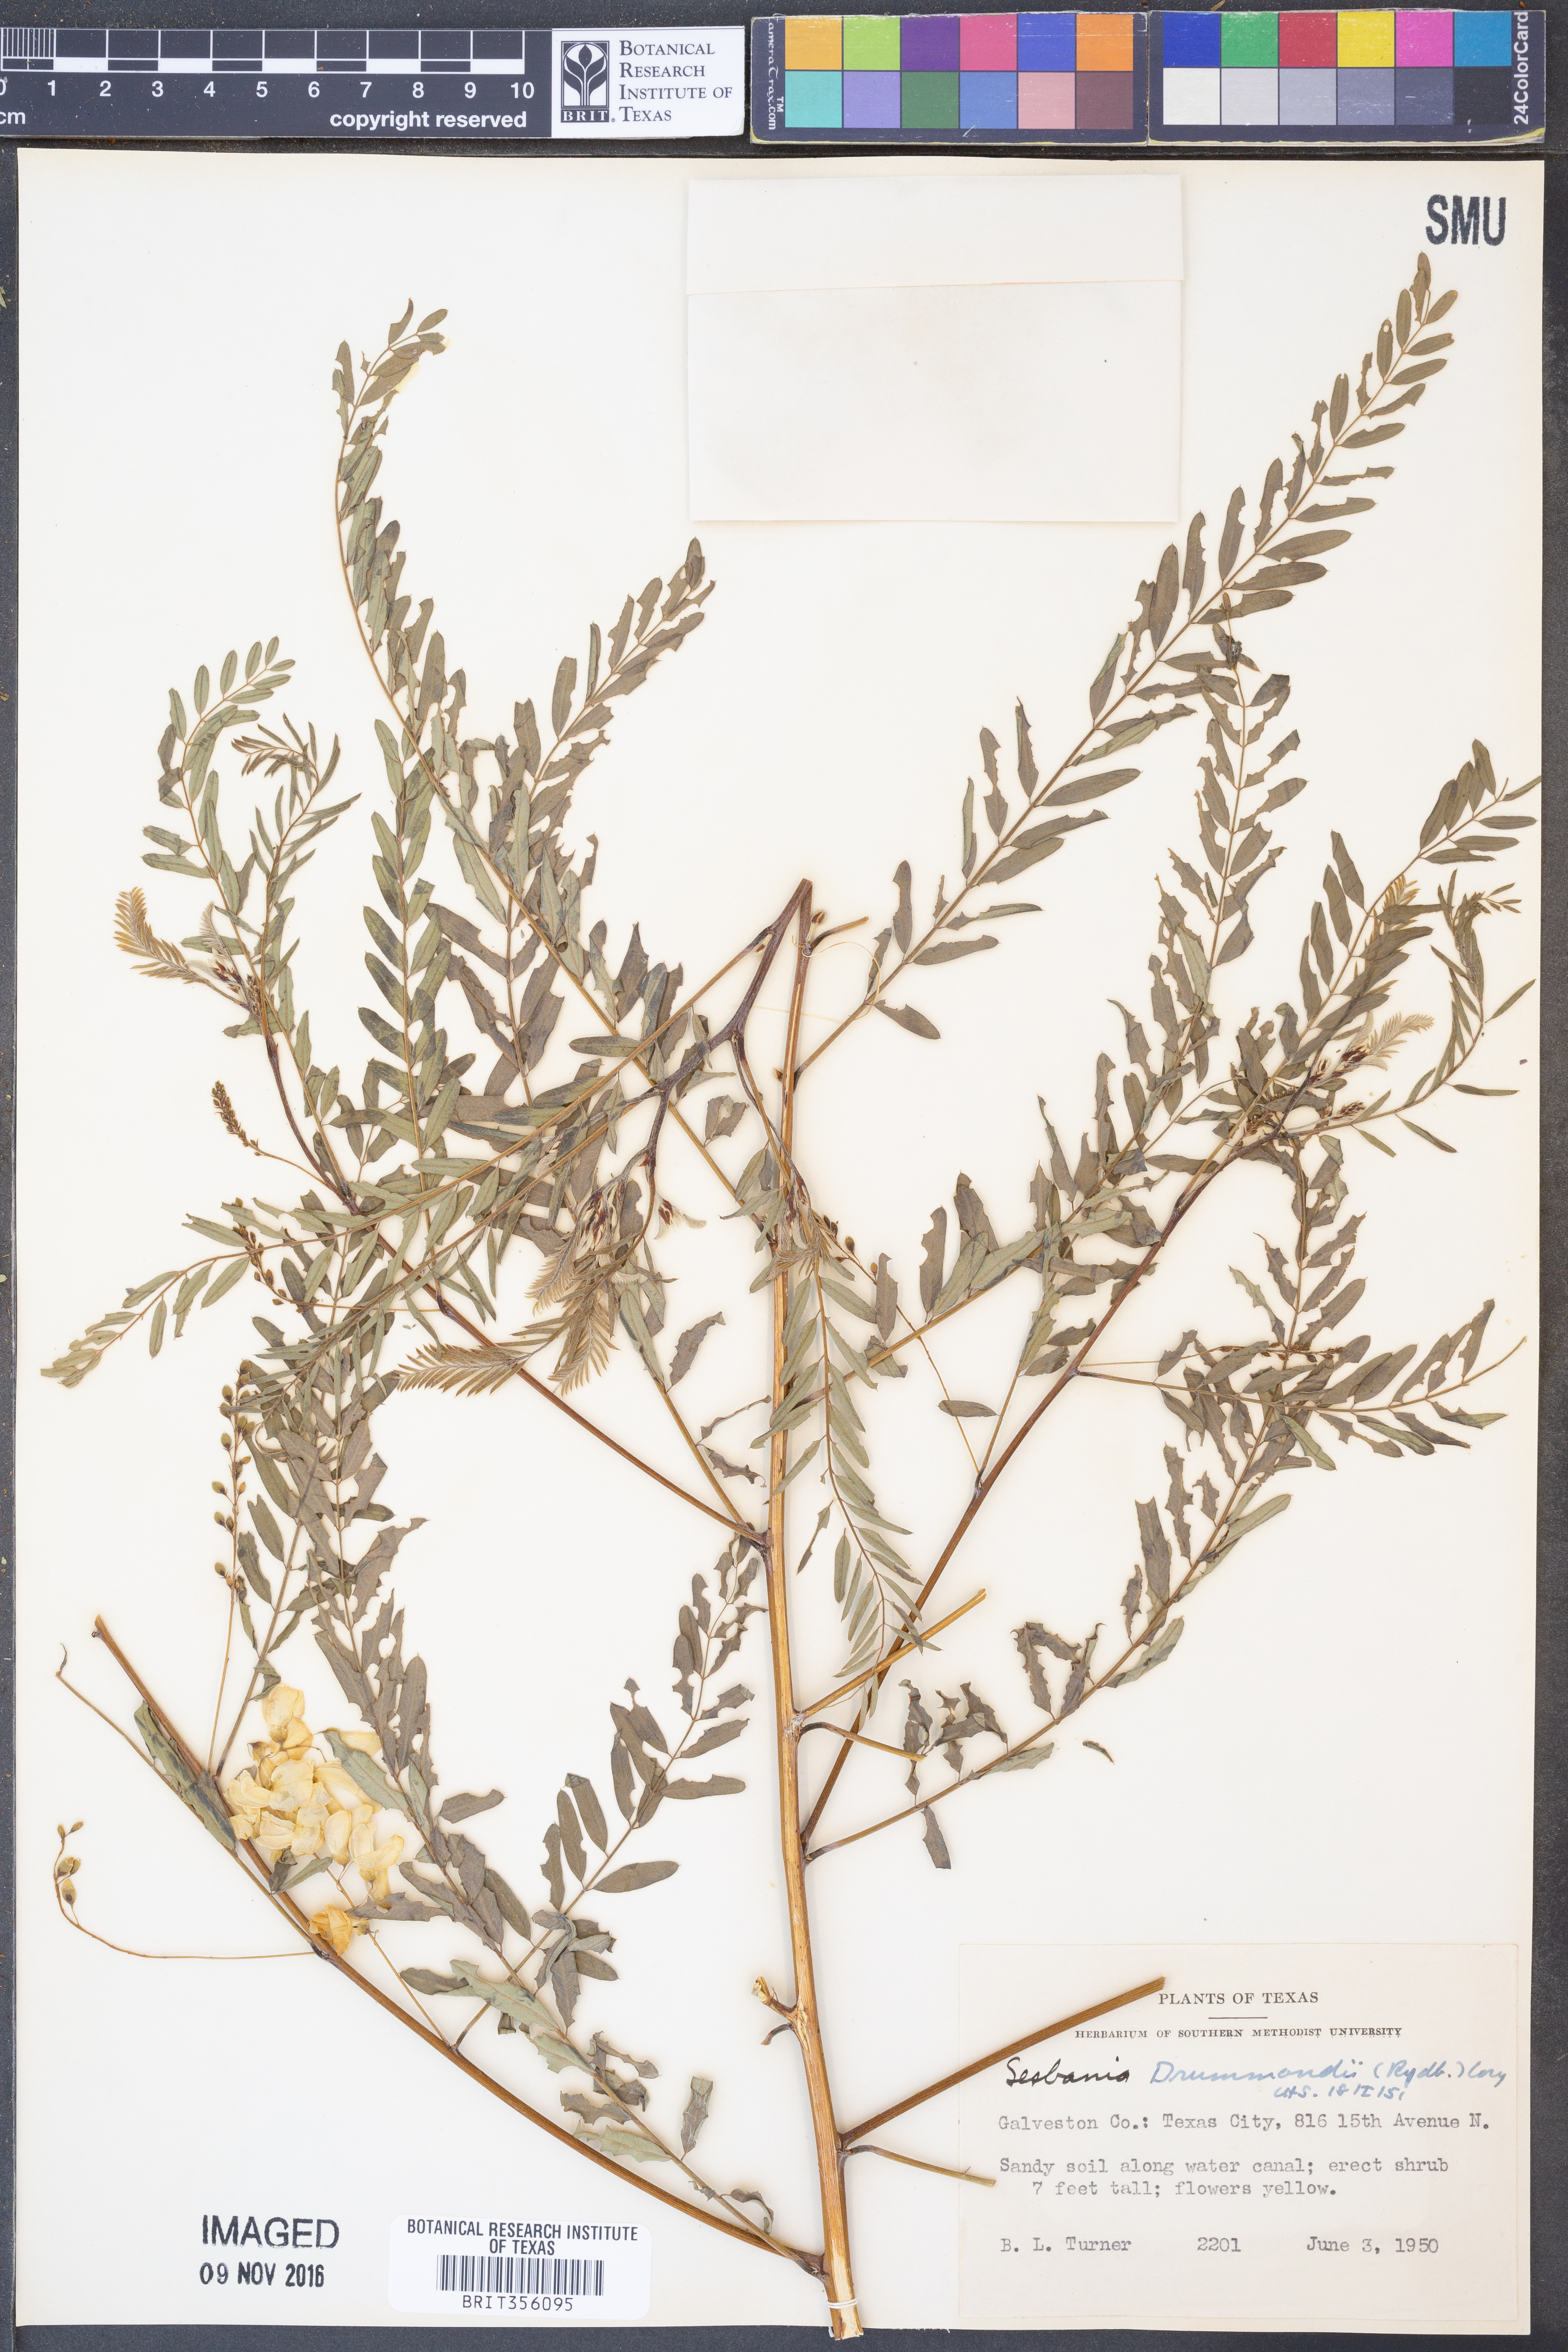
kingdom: Plantae
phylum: Tracheophyta
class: Magnoliopsida
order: Fabales
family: Fabaceae
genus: Sesbania
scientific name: Sesbania drummondii
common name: Poison-bean
